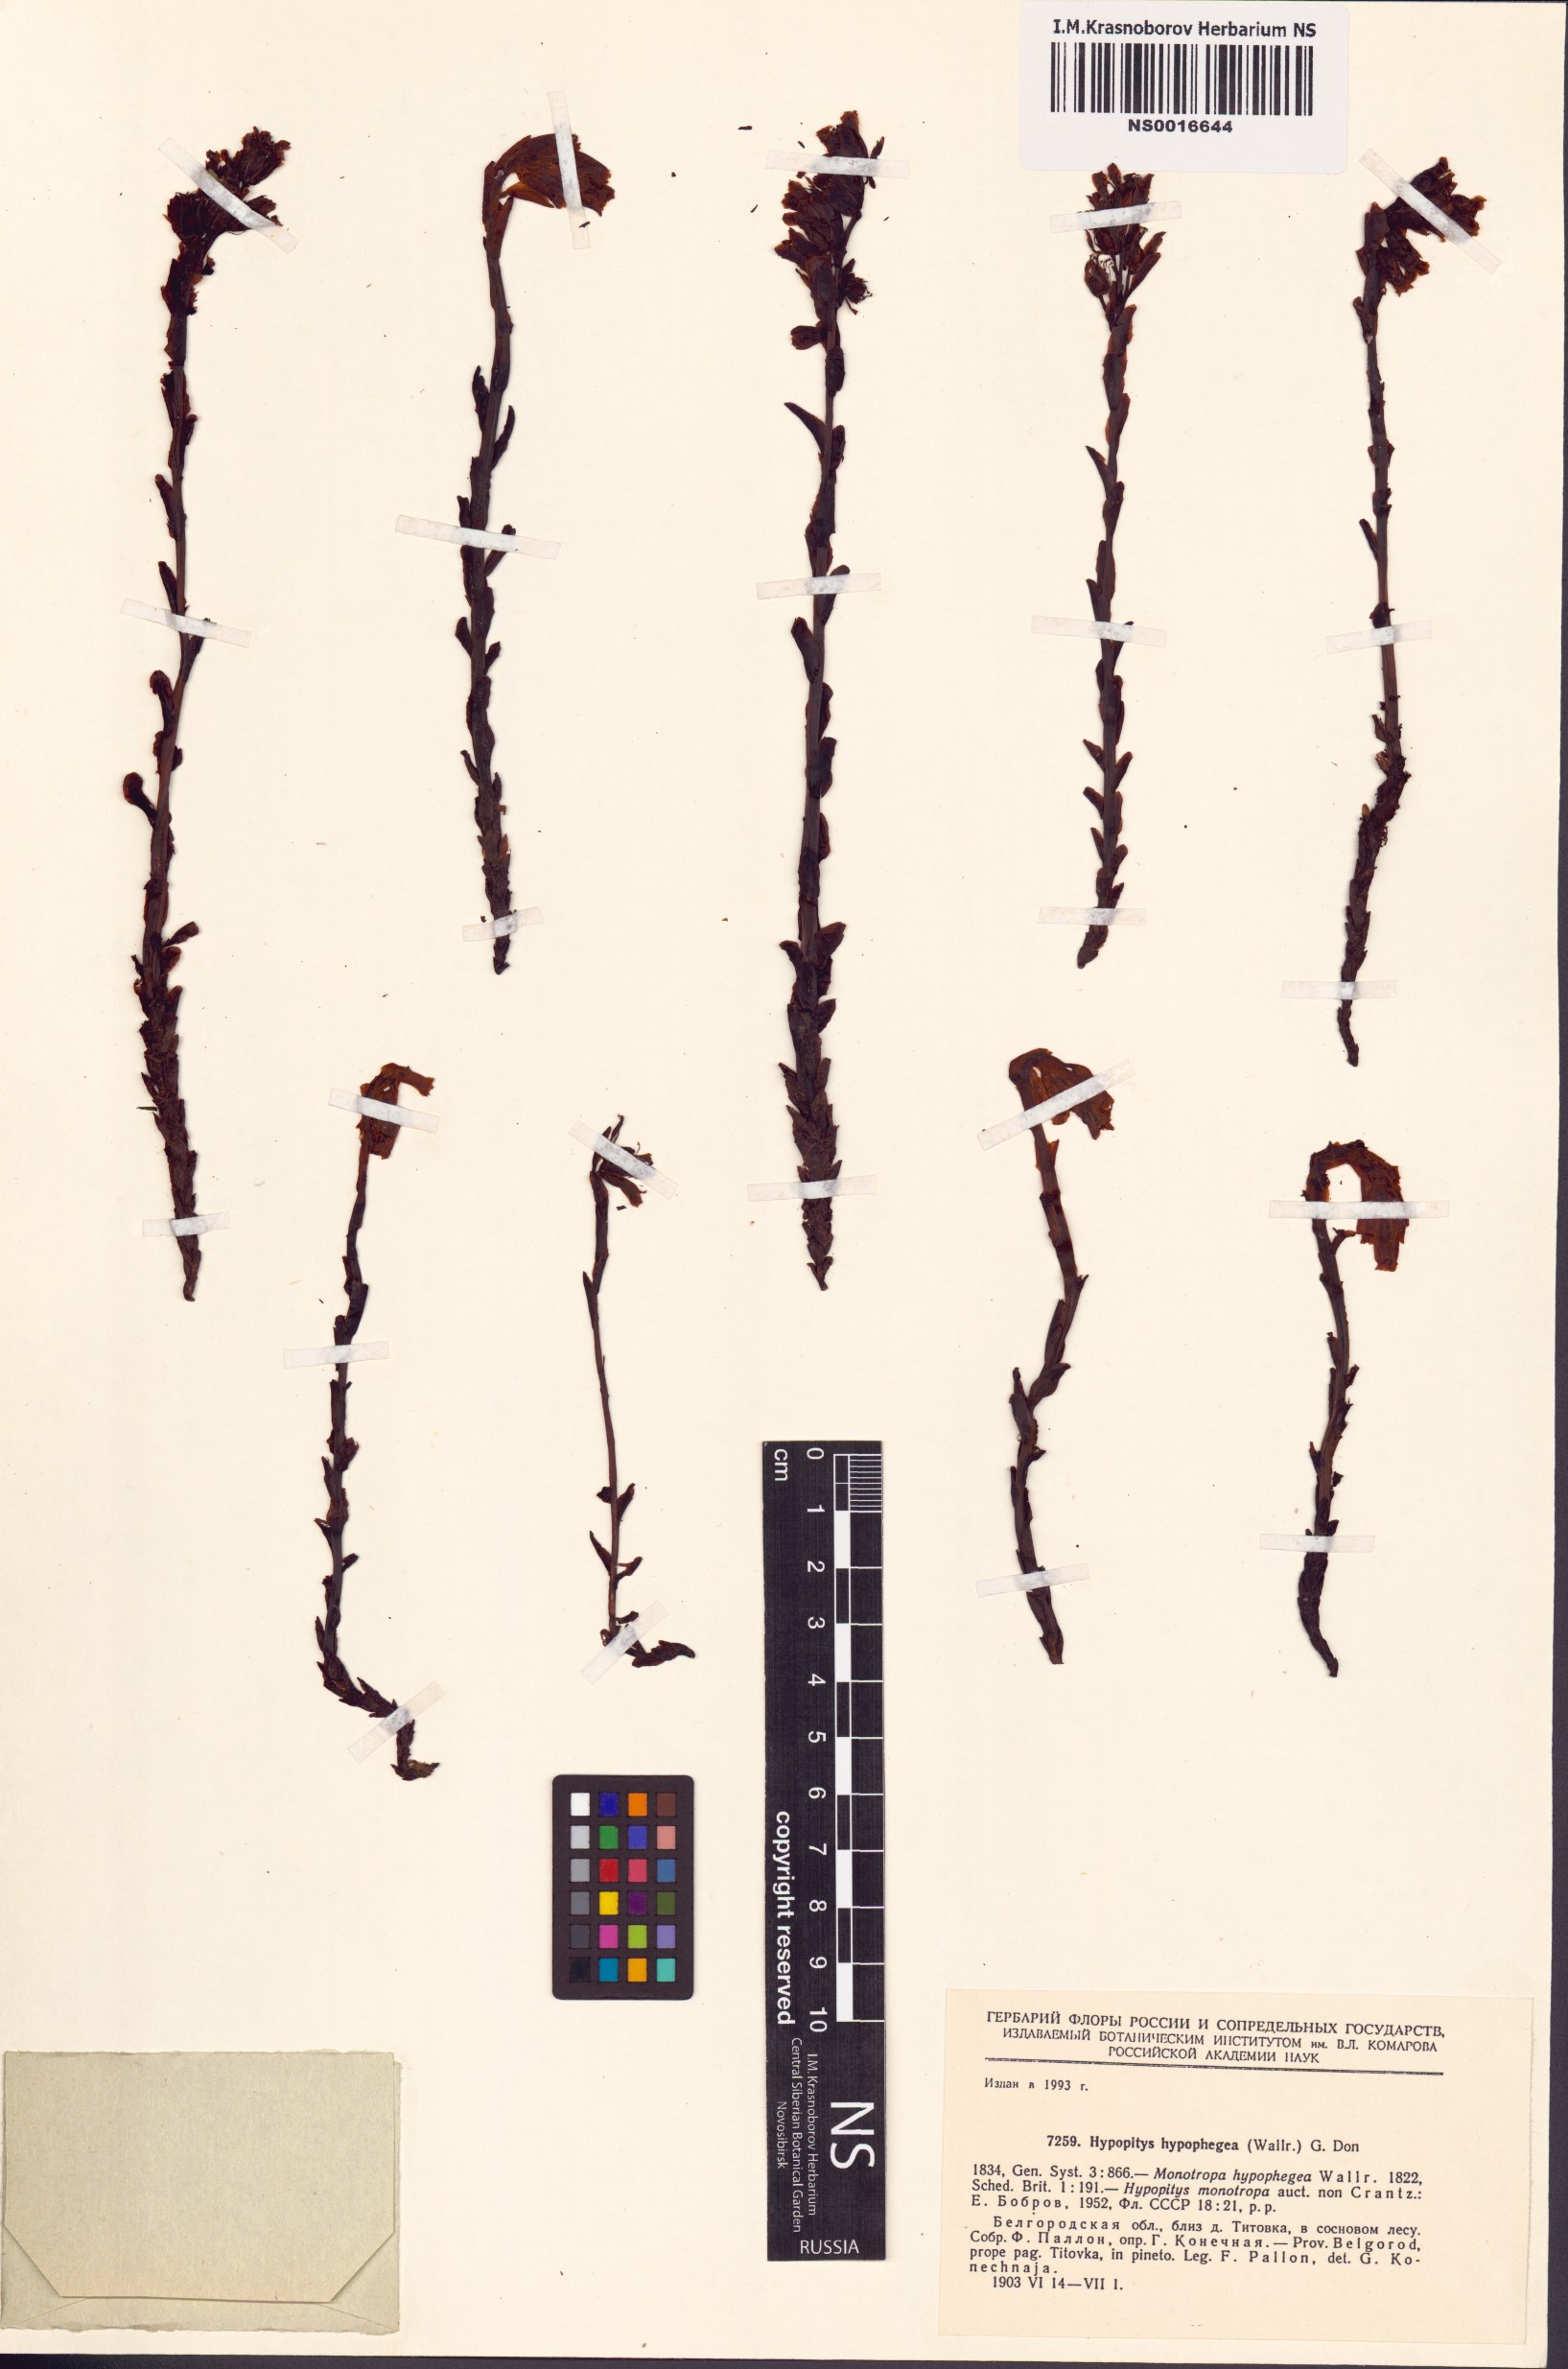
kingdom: Plantae
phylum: Tracheophyta
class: Magnoliopsida
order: Ericales
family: Ericaceae
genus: Hypopitys
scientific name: Hypopitys hypophegea
